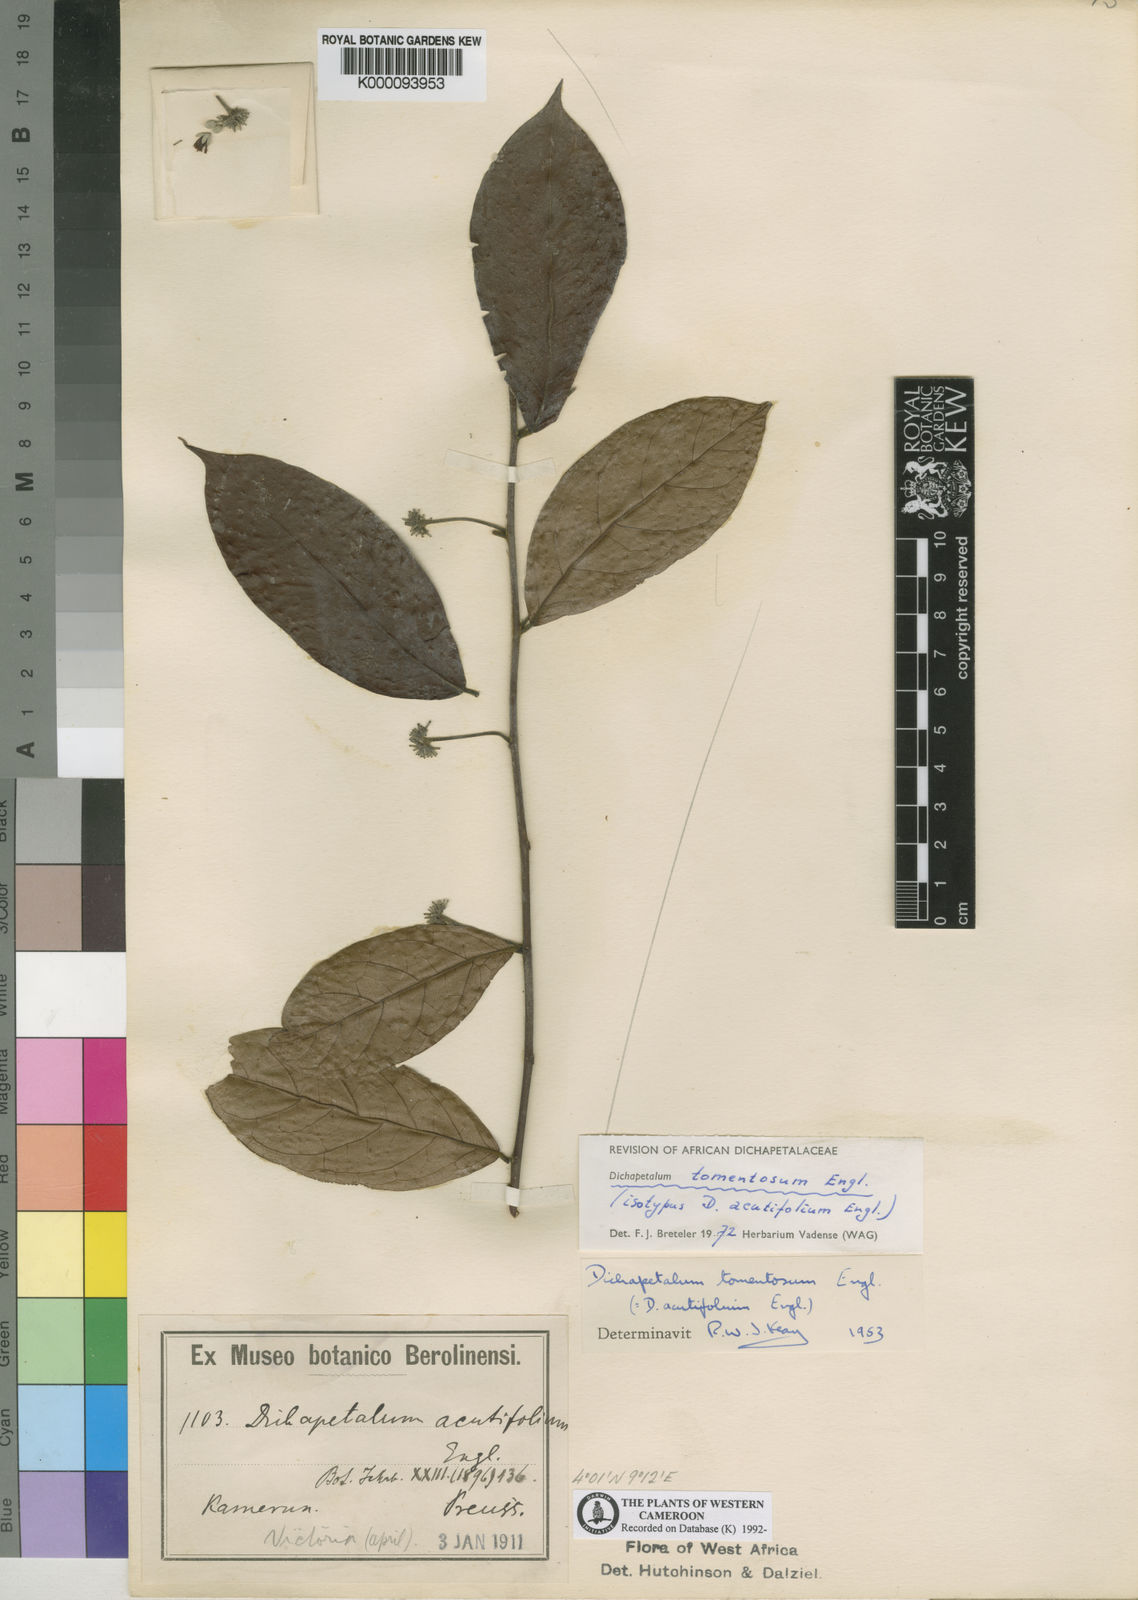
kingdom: Plantae
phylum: Tracheophyta
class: Magnoliopsida
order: Malpighiales
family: Dichapetalaceae
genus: Dichapetalum
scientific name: Dichapetalum tomentosum
